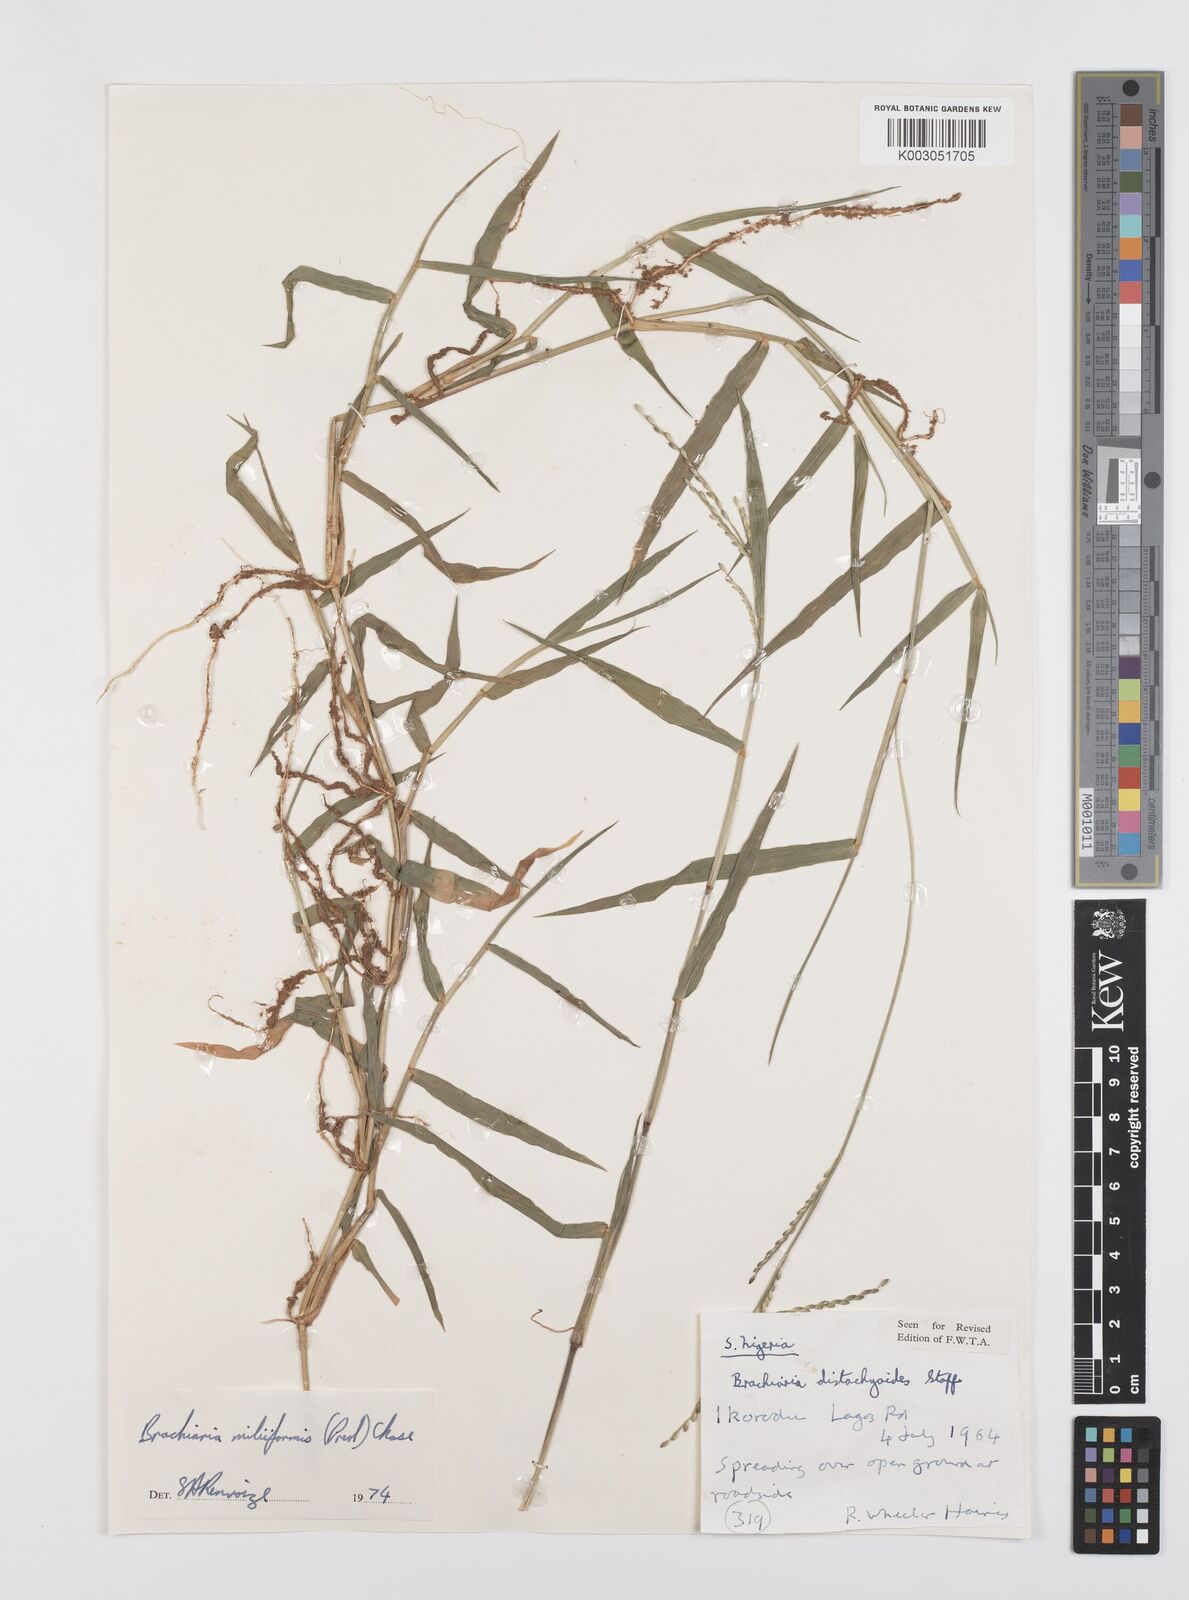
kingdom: Plantae
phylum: Tracheophyta
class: Liliopsida
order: Poales
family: Poaceae
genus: Urochloa
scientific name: Urochloa subquadripara
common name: Armgrass millet
